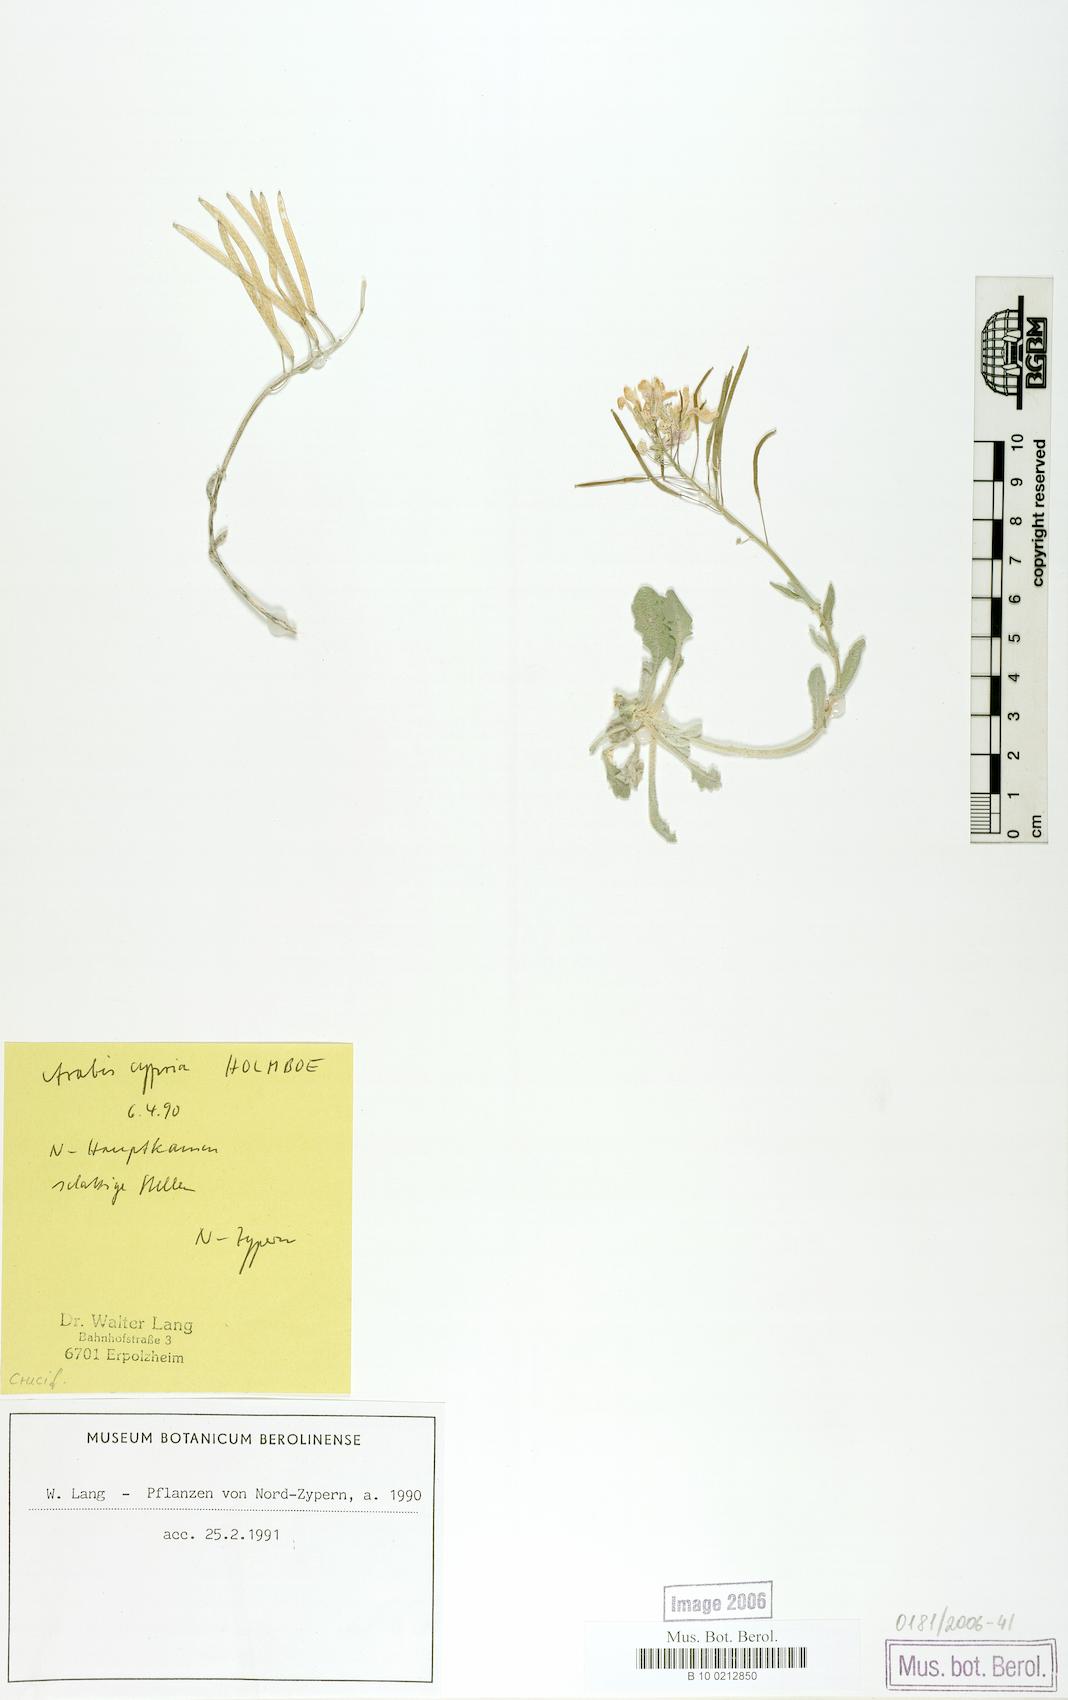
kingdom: Plantae
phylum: Tracheophyta
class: Magnoliopsida
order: Brassicales
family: Brassicaceae
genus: Arabis
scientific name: Arabis cypria
